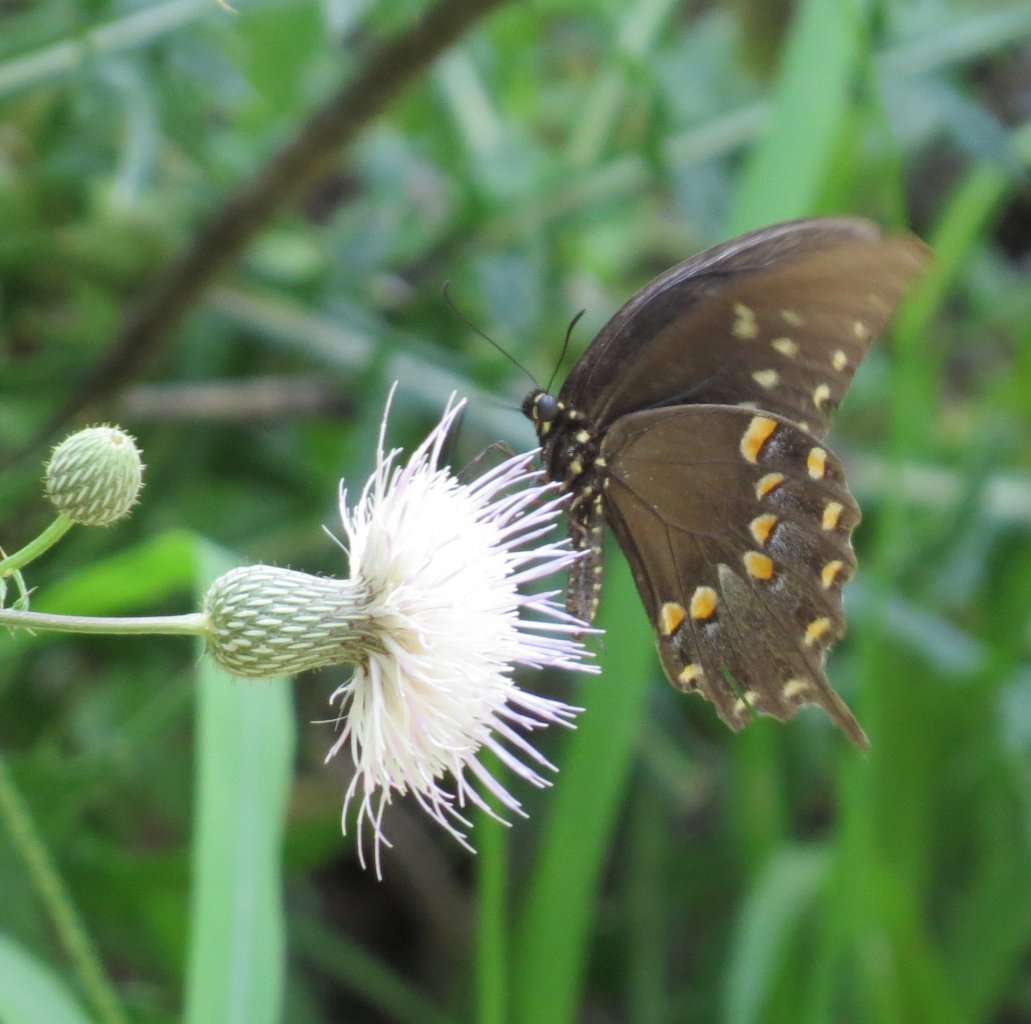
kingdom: Animalia
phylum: Arthropoda
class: Insecta
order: Lepidoptera
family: Papilionidae
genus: Pterourus
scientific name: Pterourus troilus
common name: Spicebush Swallowtail
